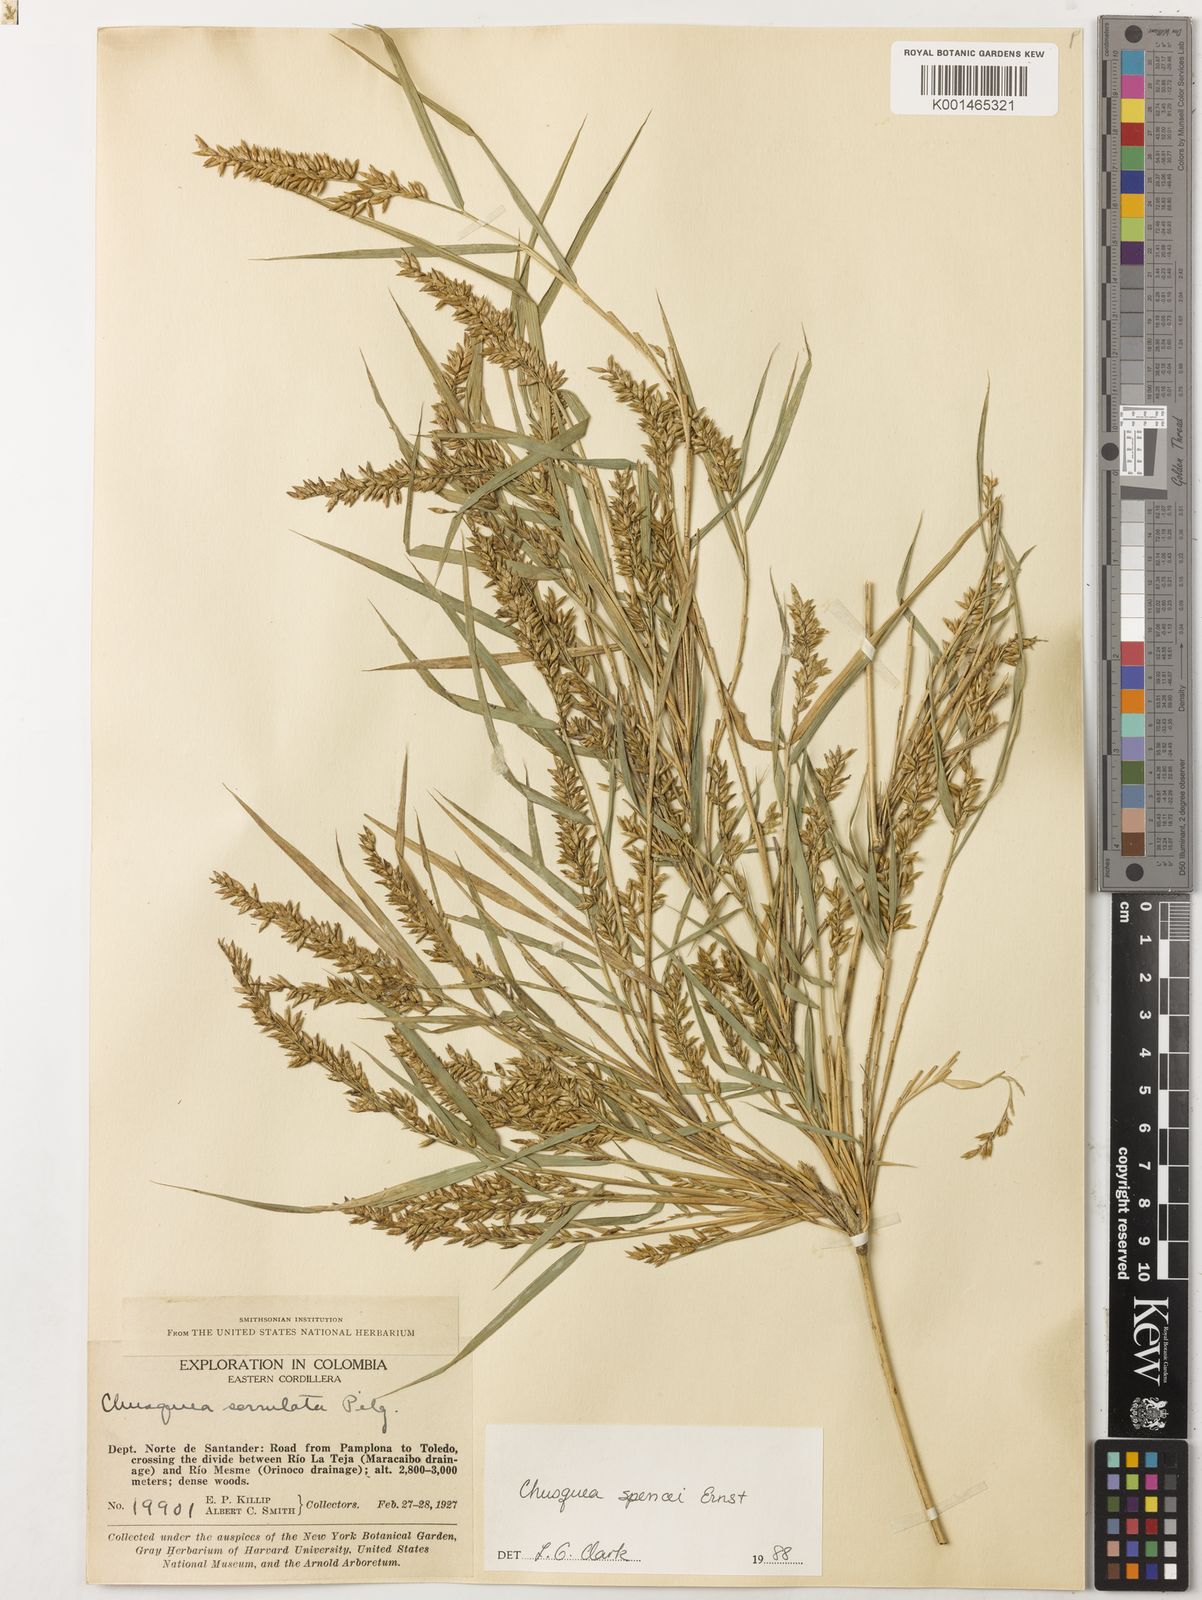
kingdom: Plantae
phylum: Tracheophyta
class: Liliopsida
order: Poales
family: Poaceae
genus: Chusquea
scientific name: Chusquea spencei
